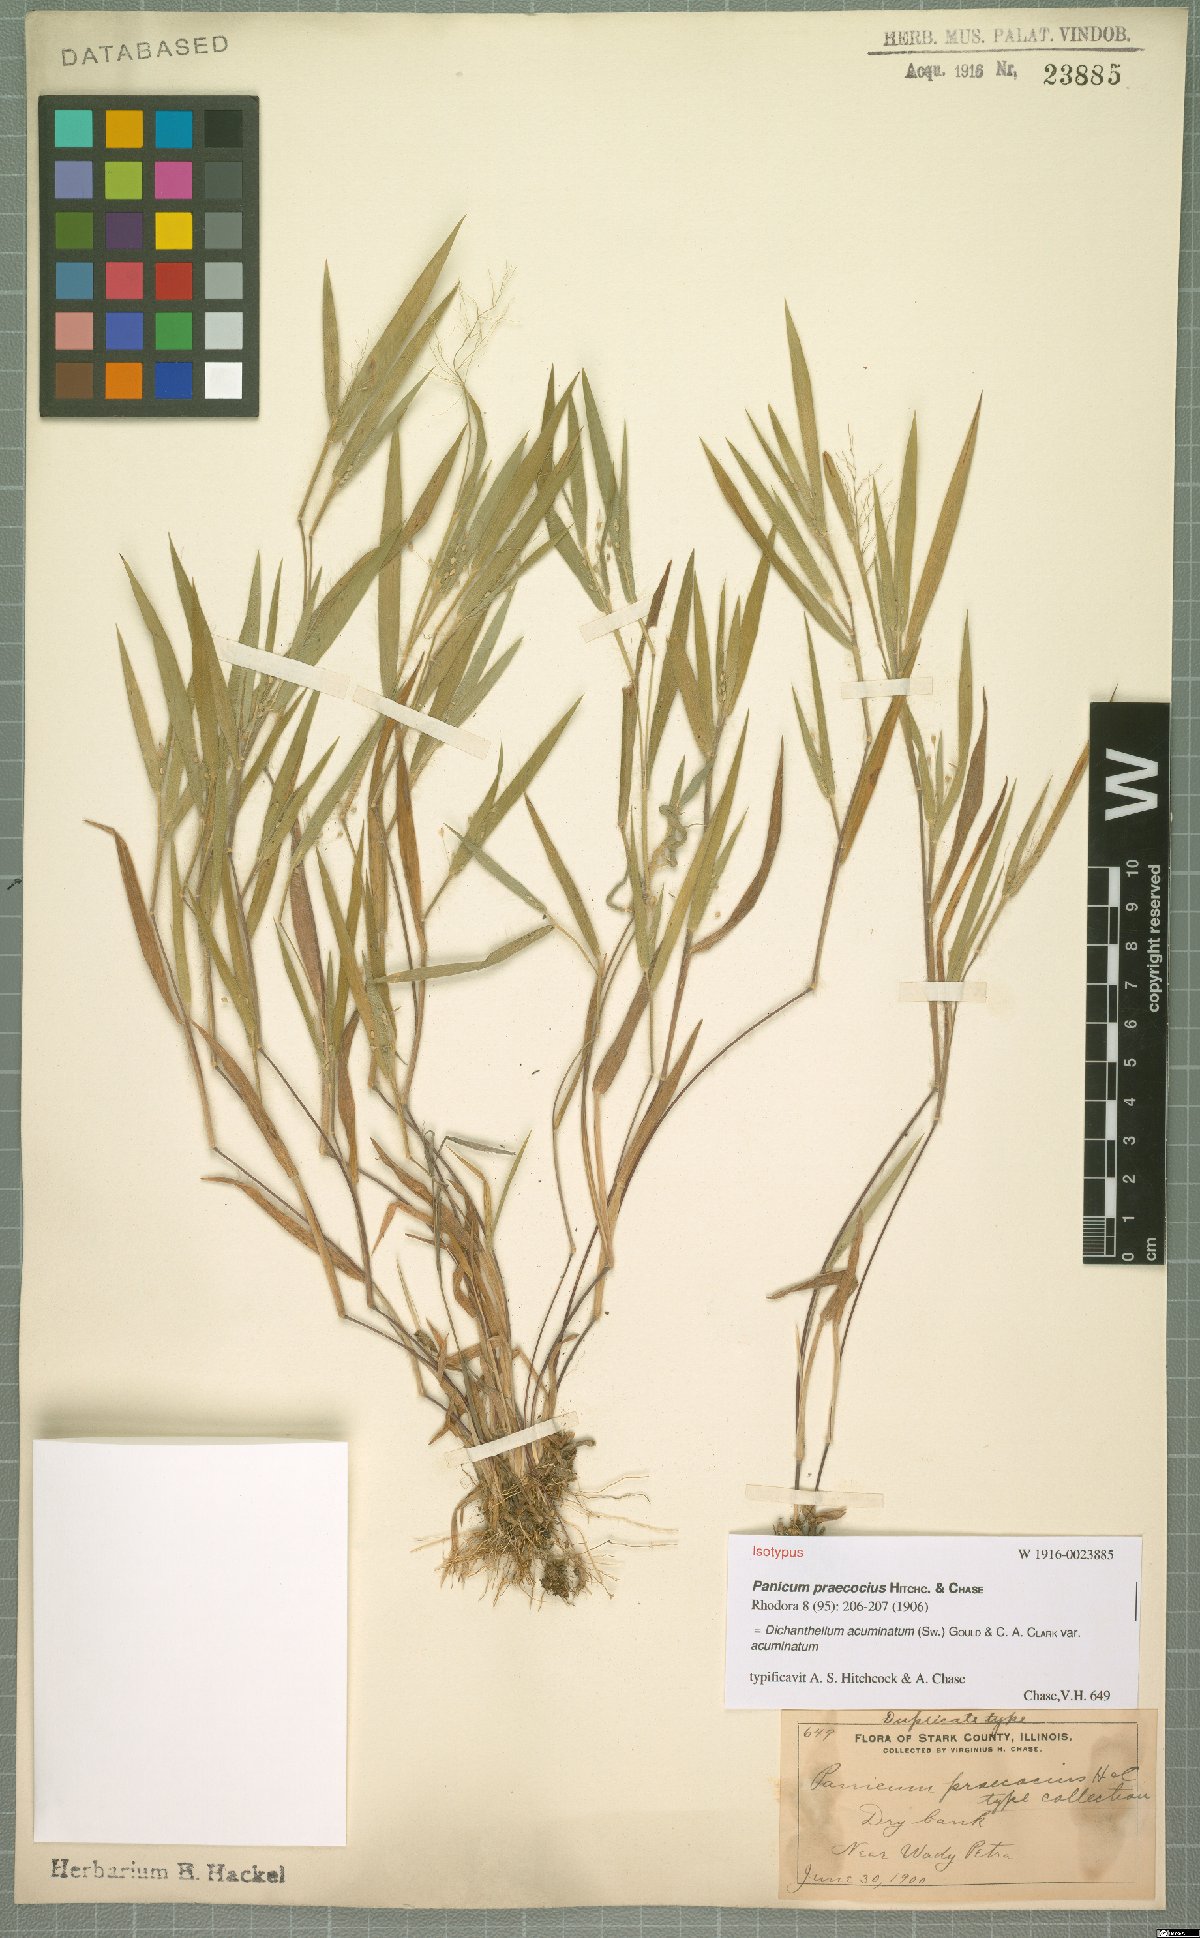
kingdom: Plantae
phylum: Tracheophyta
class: Liliopsida
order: Poales
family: Poaceae
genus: Dichanthelium
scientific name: Dichanthelium acuminatum
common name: Hairy panic grass
